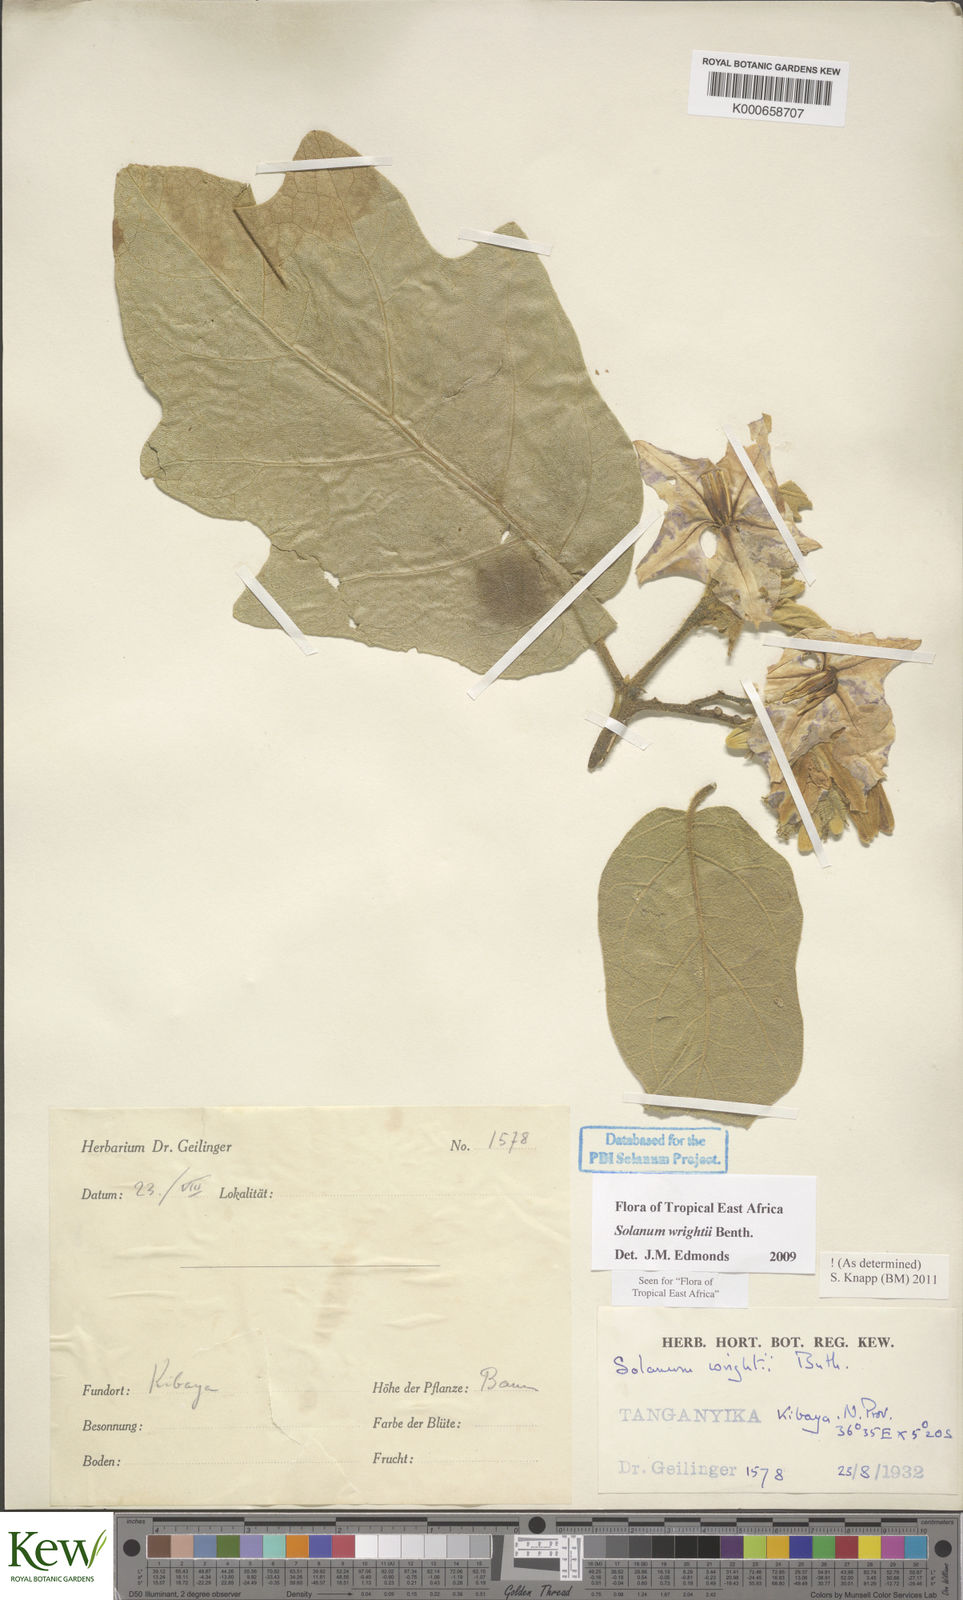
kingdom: Plantae
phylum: Tracheophyta
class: Magnoliopsida
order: Solanales
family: Solanaceae
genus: Solanum
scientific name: Solanum wrightii
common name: Brazilian potato-tree
